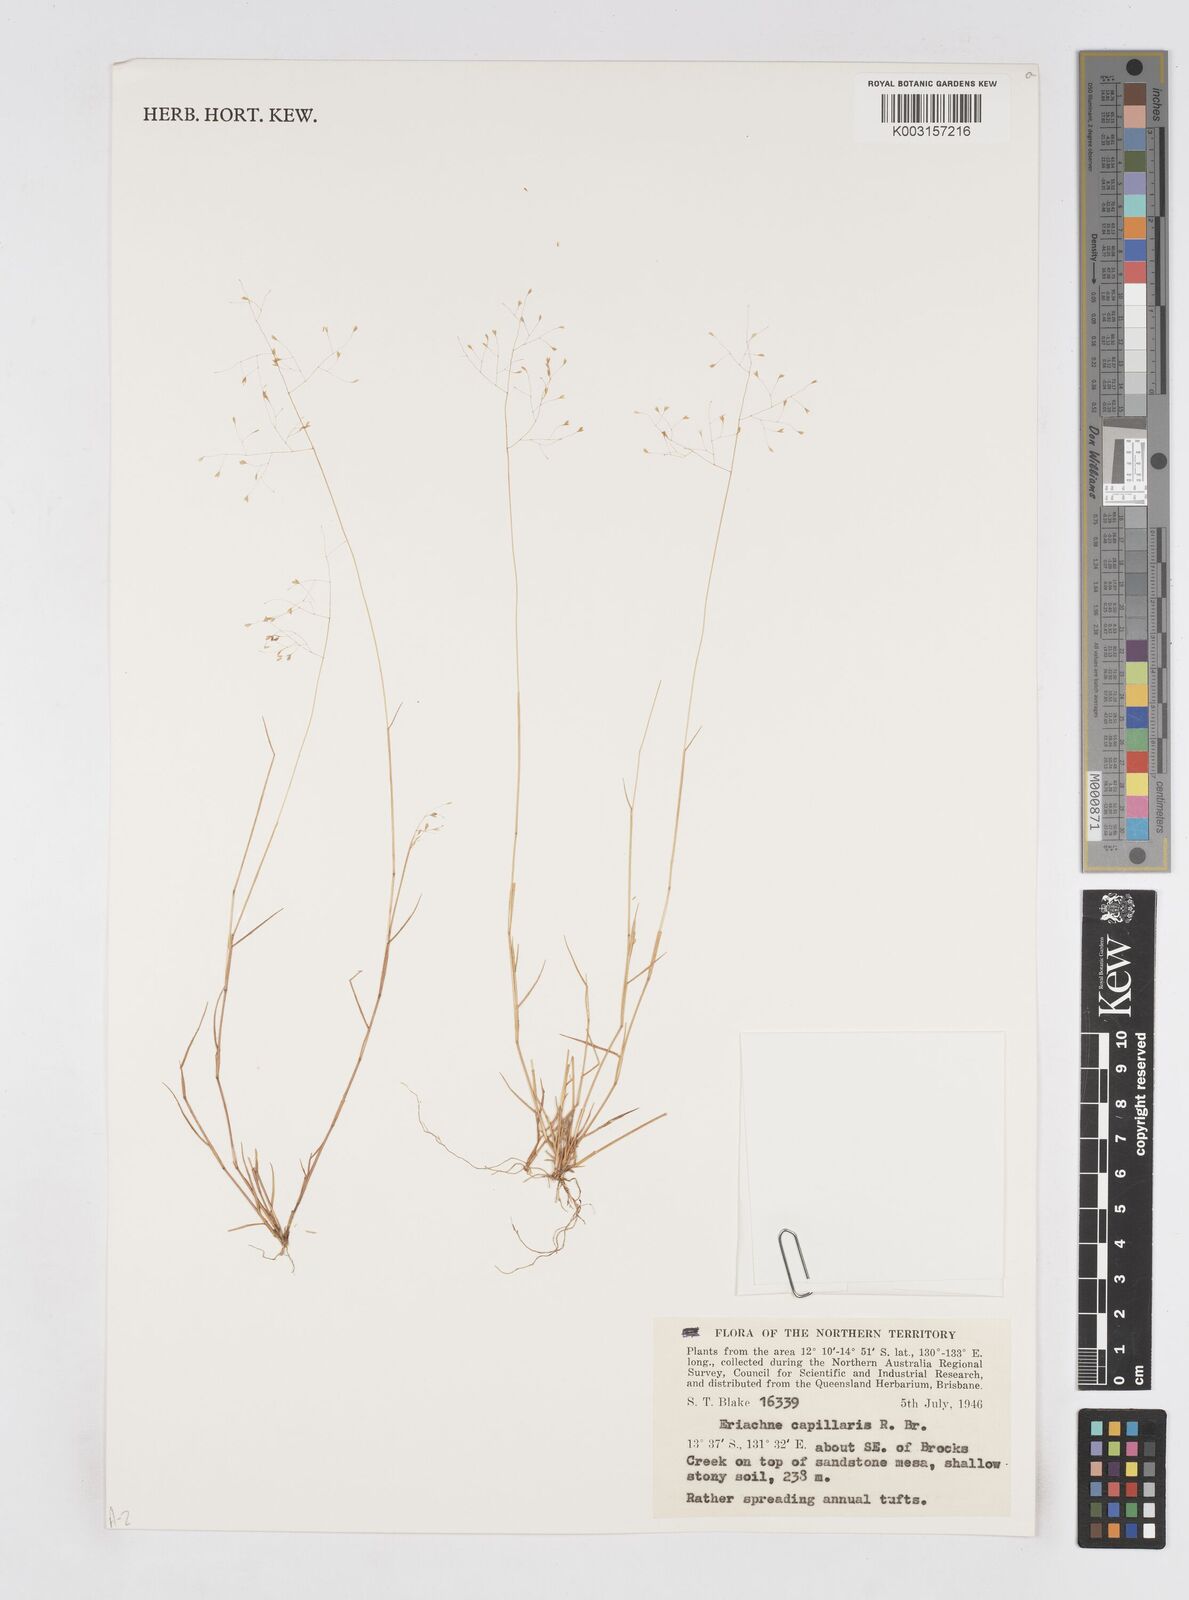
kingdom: Plantae
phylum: Tracheophyta
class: Liliopsida
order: Poales
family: Poaceae
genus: Eriachne
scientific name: Eriachne capillaris
